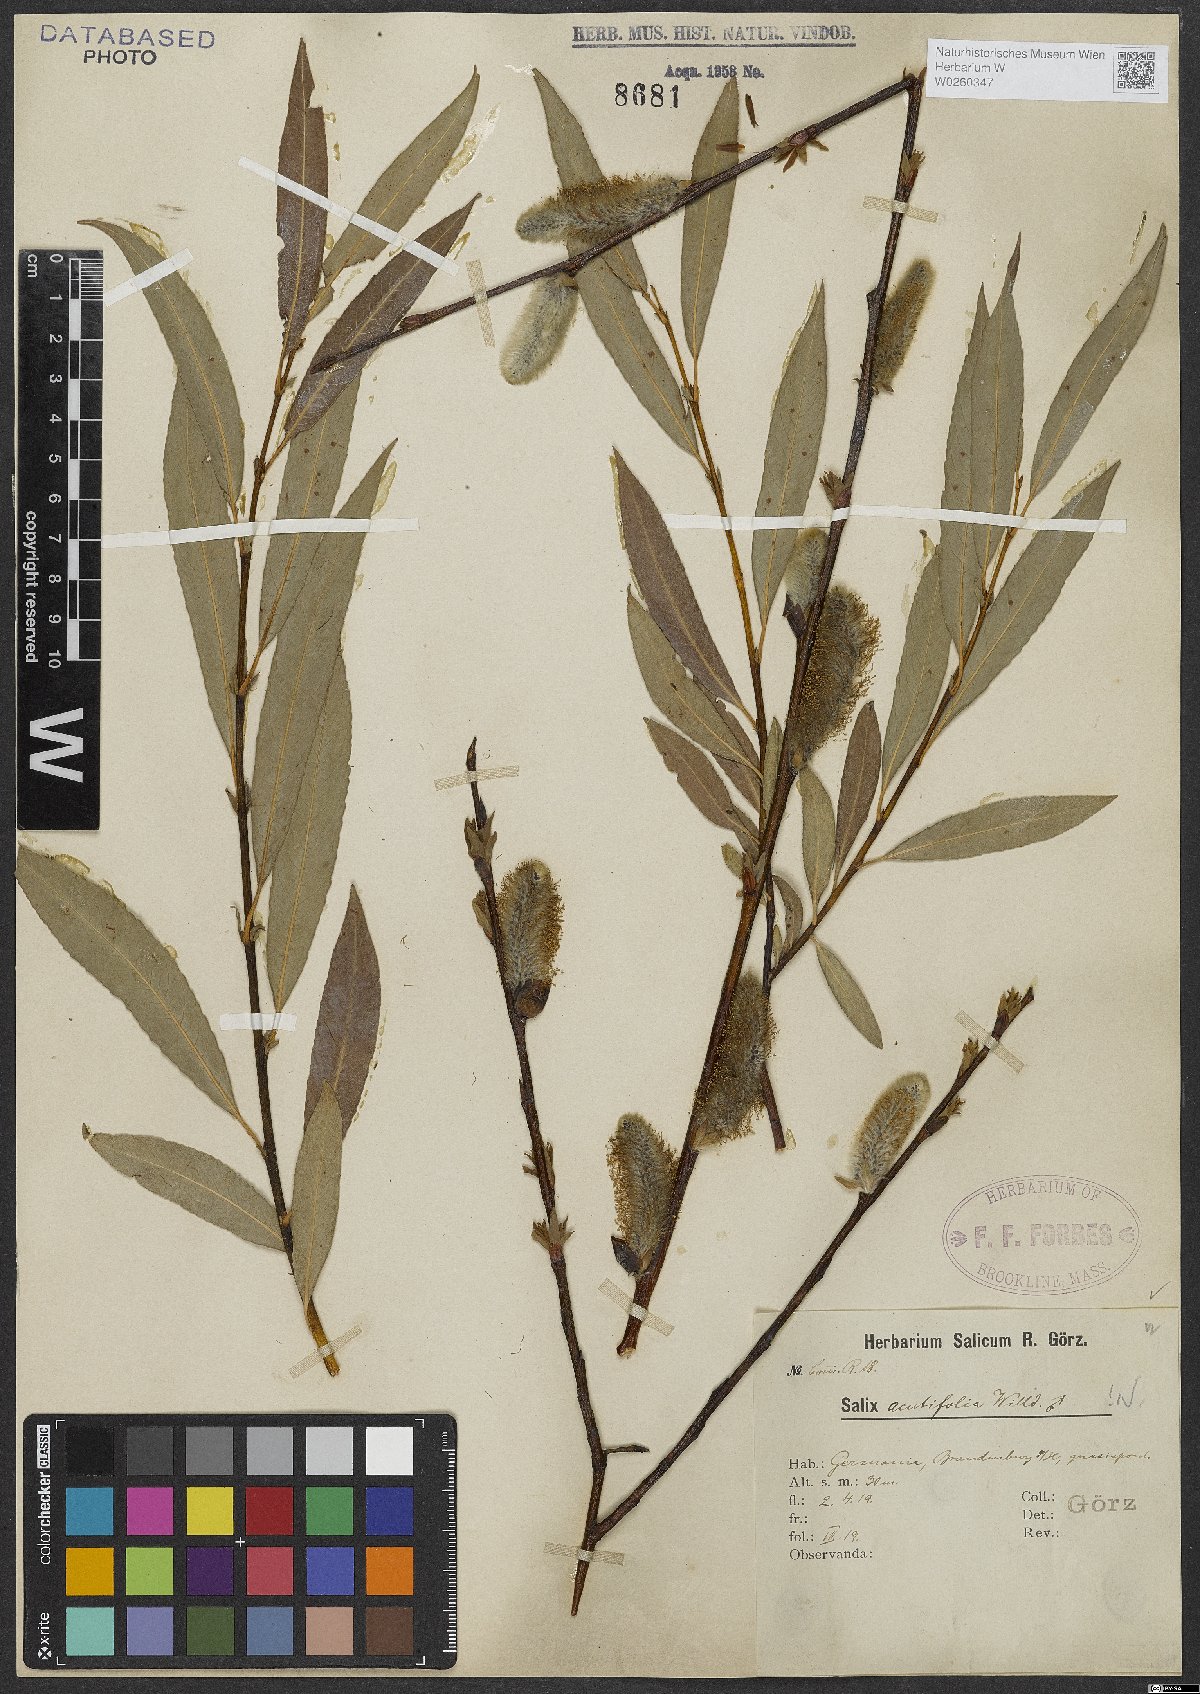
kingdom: Plantae
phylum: Tracheophyta
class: Magnoliopsida
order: Malpighiales
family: Salicaceae
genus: Salix
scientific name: Salix acutifolia
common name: Siberian violet-willow
